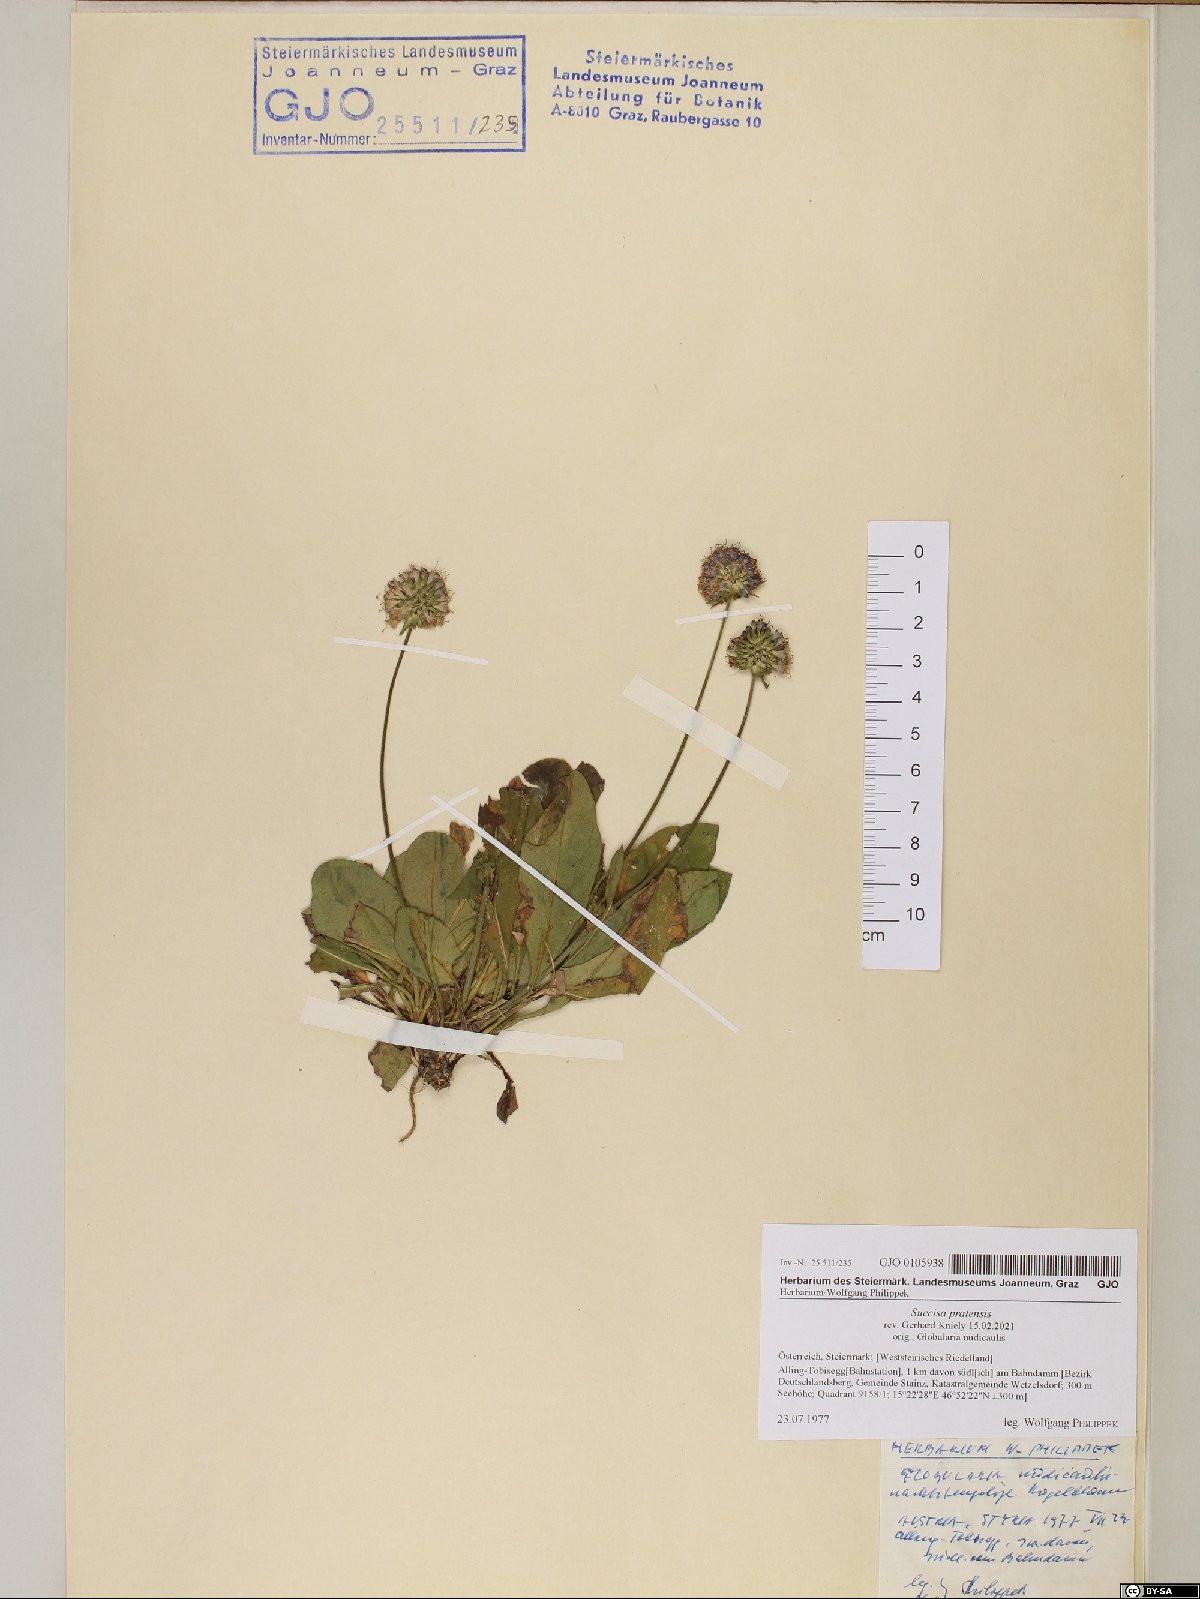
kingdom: Plantae
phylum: Tracheophyta
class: Magnoliopsida
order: Dipsacales
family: Caprifoliaceae
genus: Succisa
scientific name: Succisa pratensis
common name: Devil's-bit
